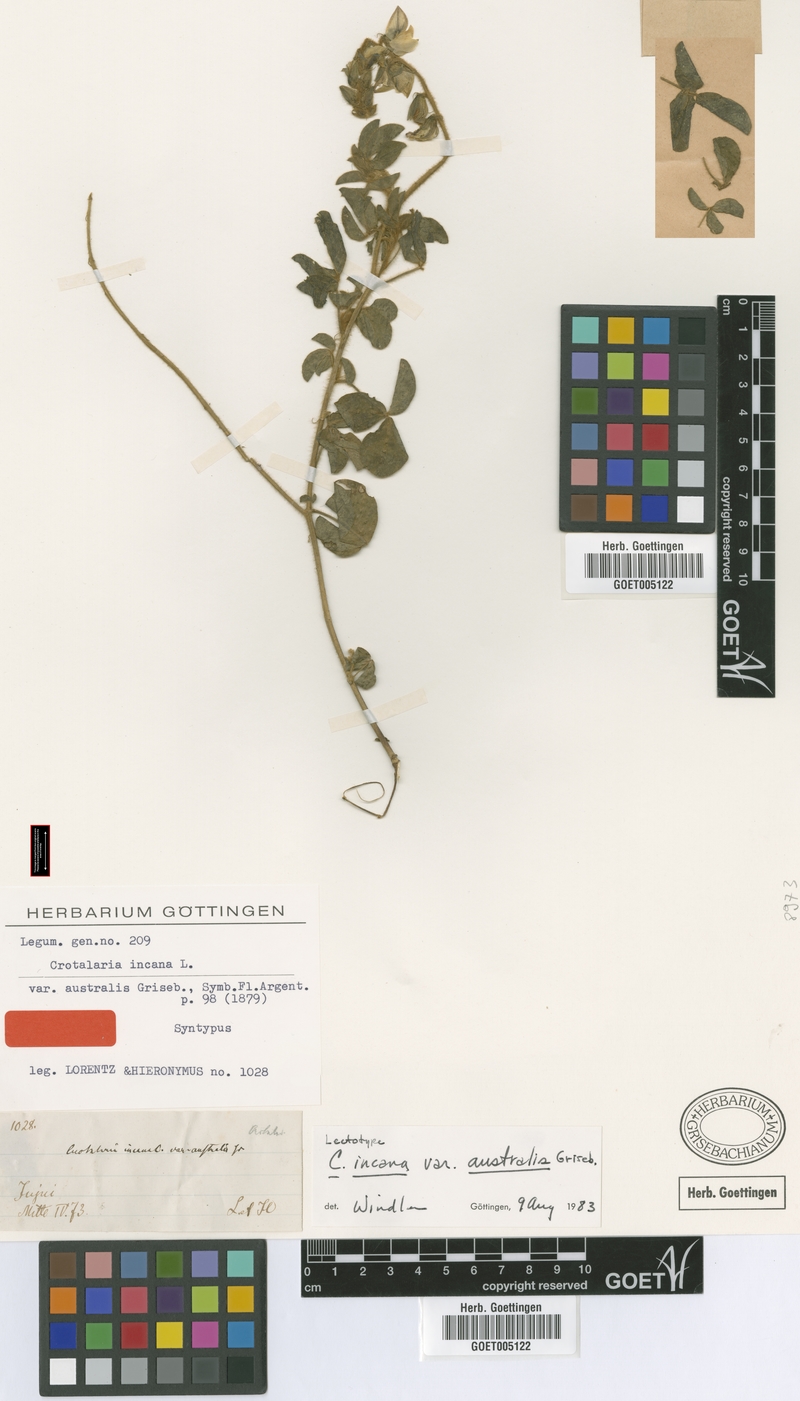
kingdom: Plantae
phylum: Tracheophyta
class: Magnoliopsida
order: Fabales
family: Fabaceae
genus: Crotalaria
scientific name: Crotalaria chaco-serranensis
